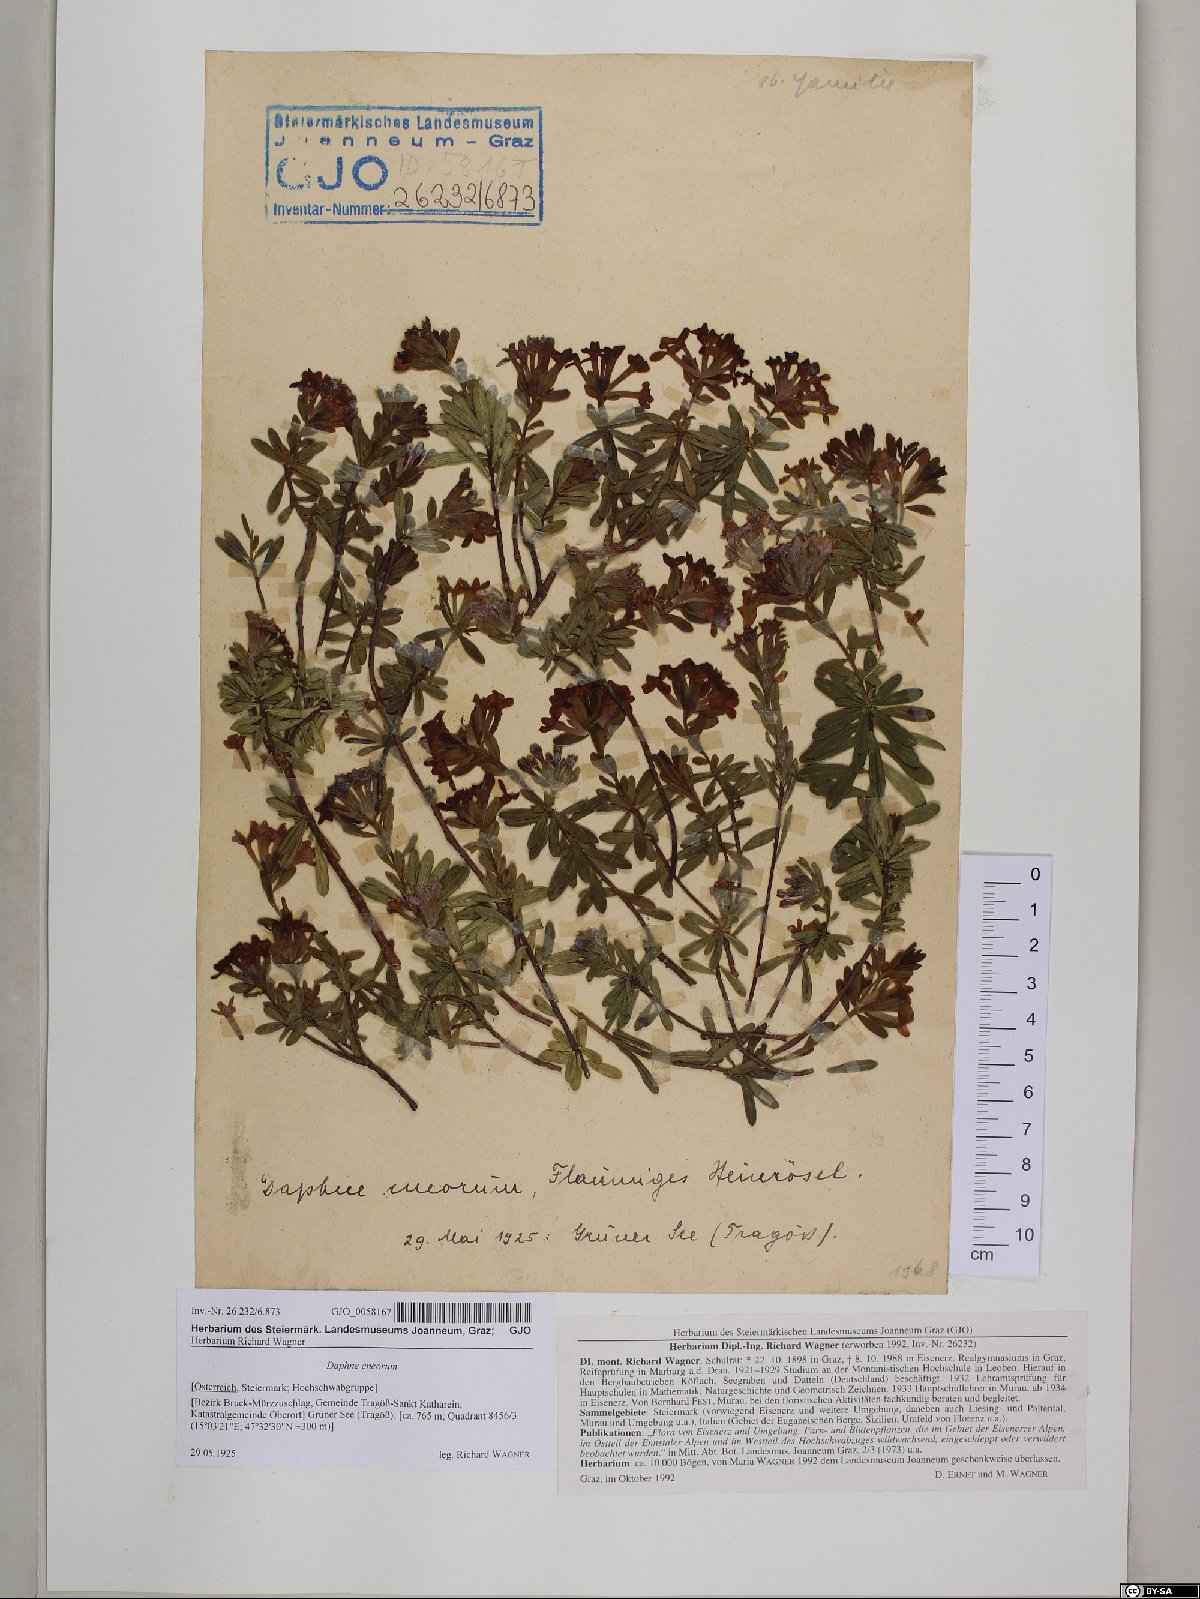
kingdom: Plantae
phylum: Tracheophyta
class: Magnoliopsida
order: Malvales
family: Thymelaeaceae
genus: Daphne
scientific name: Daphne cneorum
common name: Garland-flower
